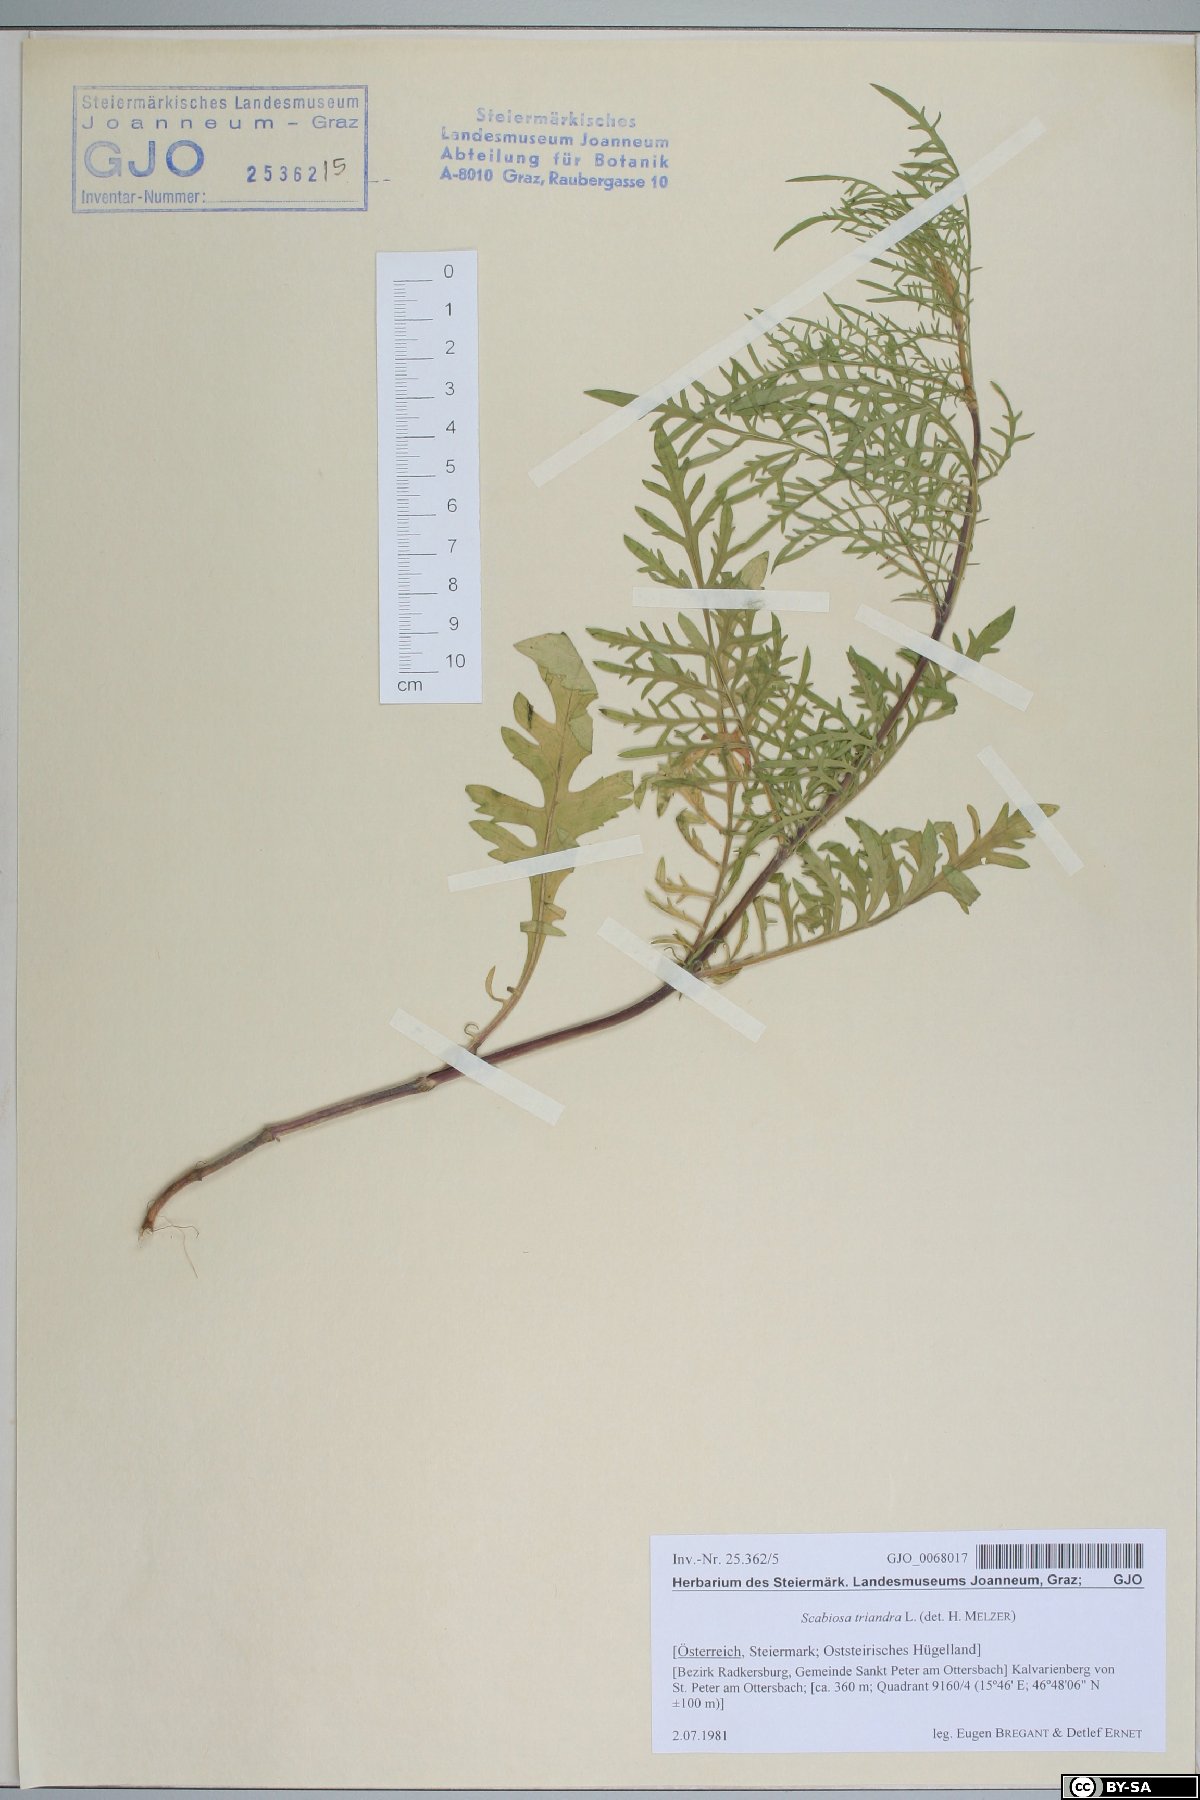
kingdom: Plantae
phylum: Tracheophyta
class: Magnoliopsida
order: Dipsacales
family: Caprifoliaceae
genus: Scabiosa
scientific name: Scabiosa triandra
